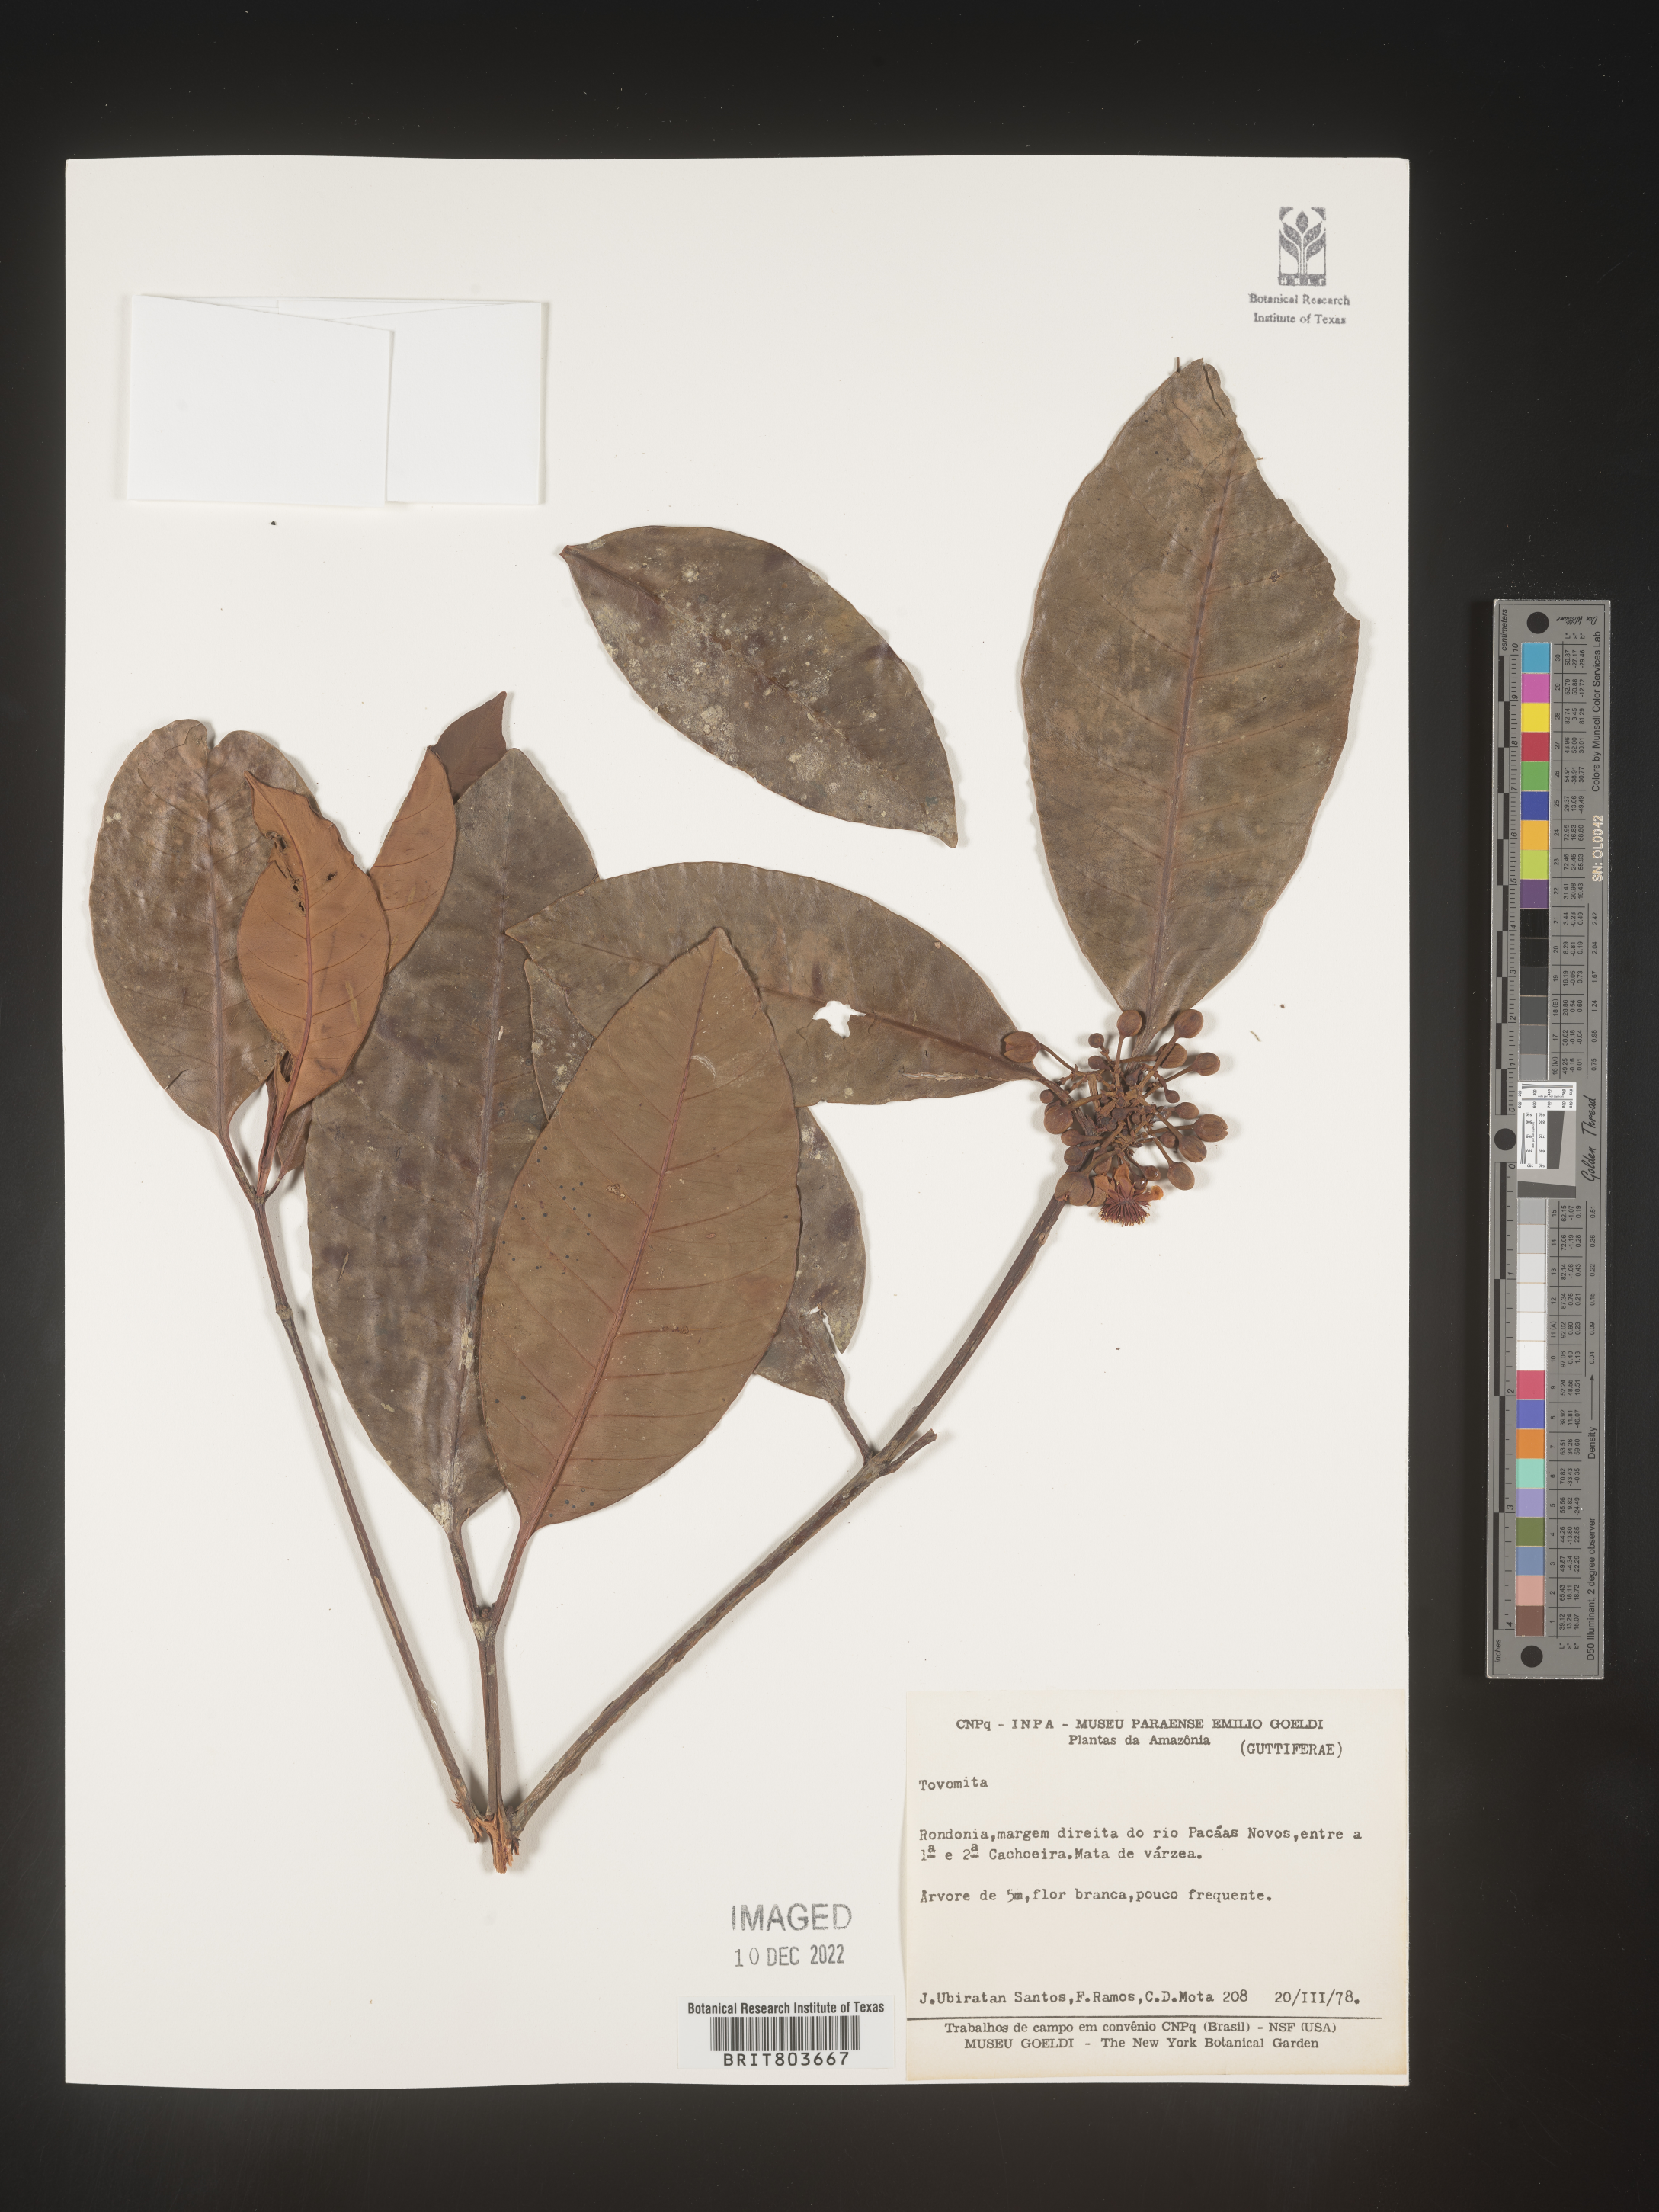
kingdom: Plantae
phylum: Tracheophyta
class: Magnoliopsida
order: Malpighiales
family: Clusiaceae
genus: Tovomita
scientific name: Tovomita
